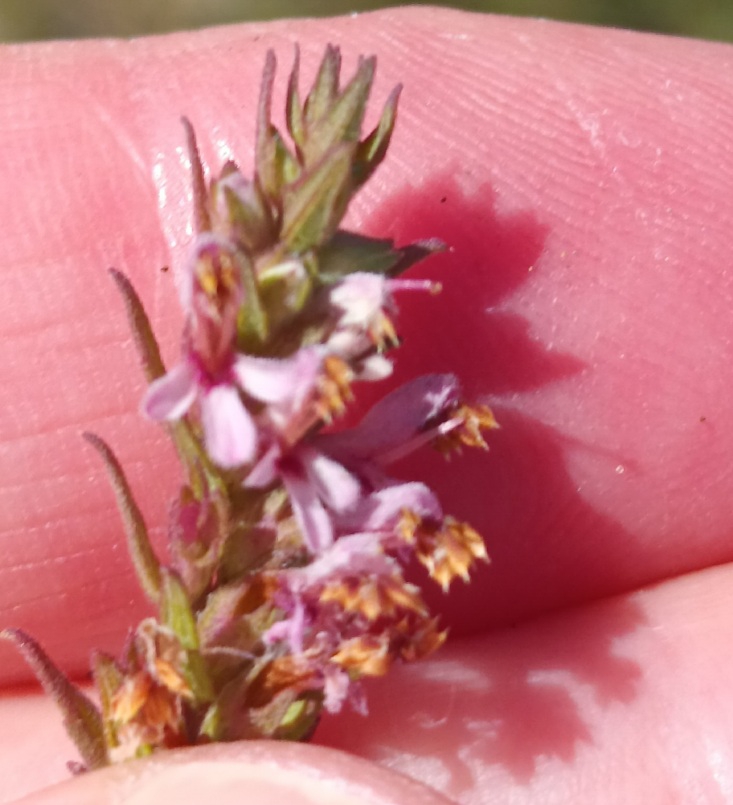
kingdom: Plantae
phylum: Tracheophyta
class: Magnoliopsida
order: Lamiales
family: Orobanchaceae
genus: Odontites
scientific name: Odontites vulgaris
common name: Høst-rødtop
